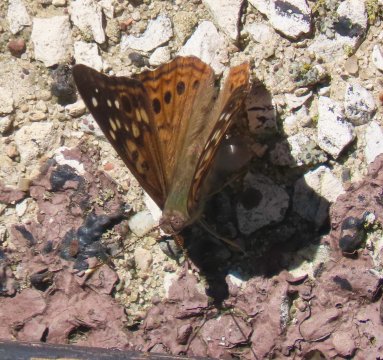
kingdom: Animalia
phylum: Arthropoda
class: Insecta
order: Lepidoptera
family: Nymphalidae
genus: Asterocampa
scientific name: Asterocampa celtis
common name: Hackberry Emperor
